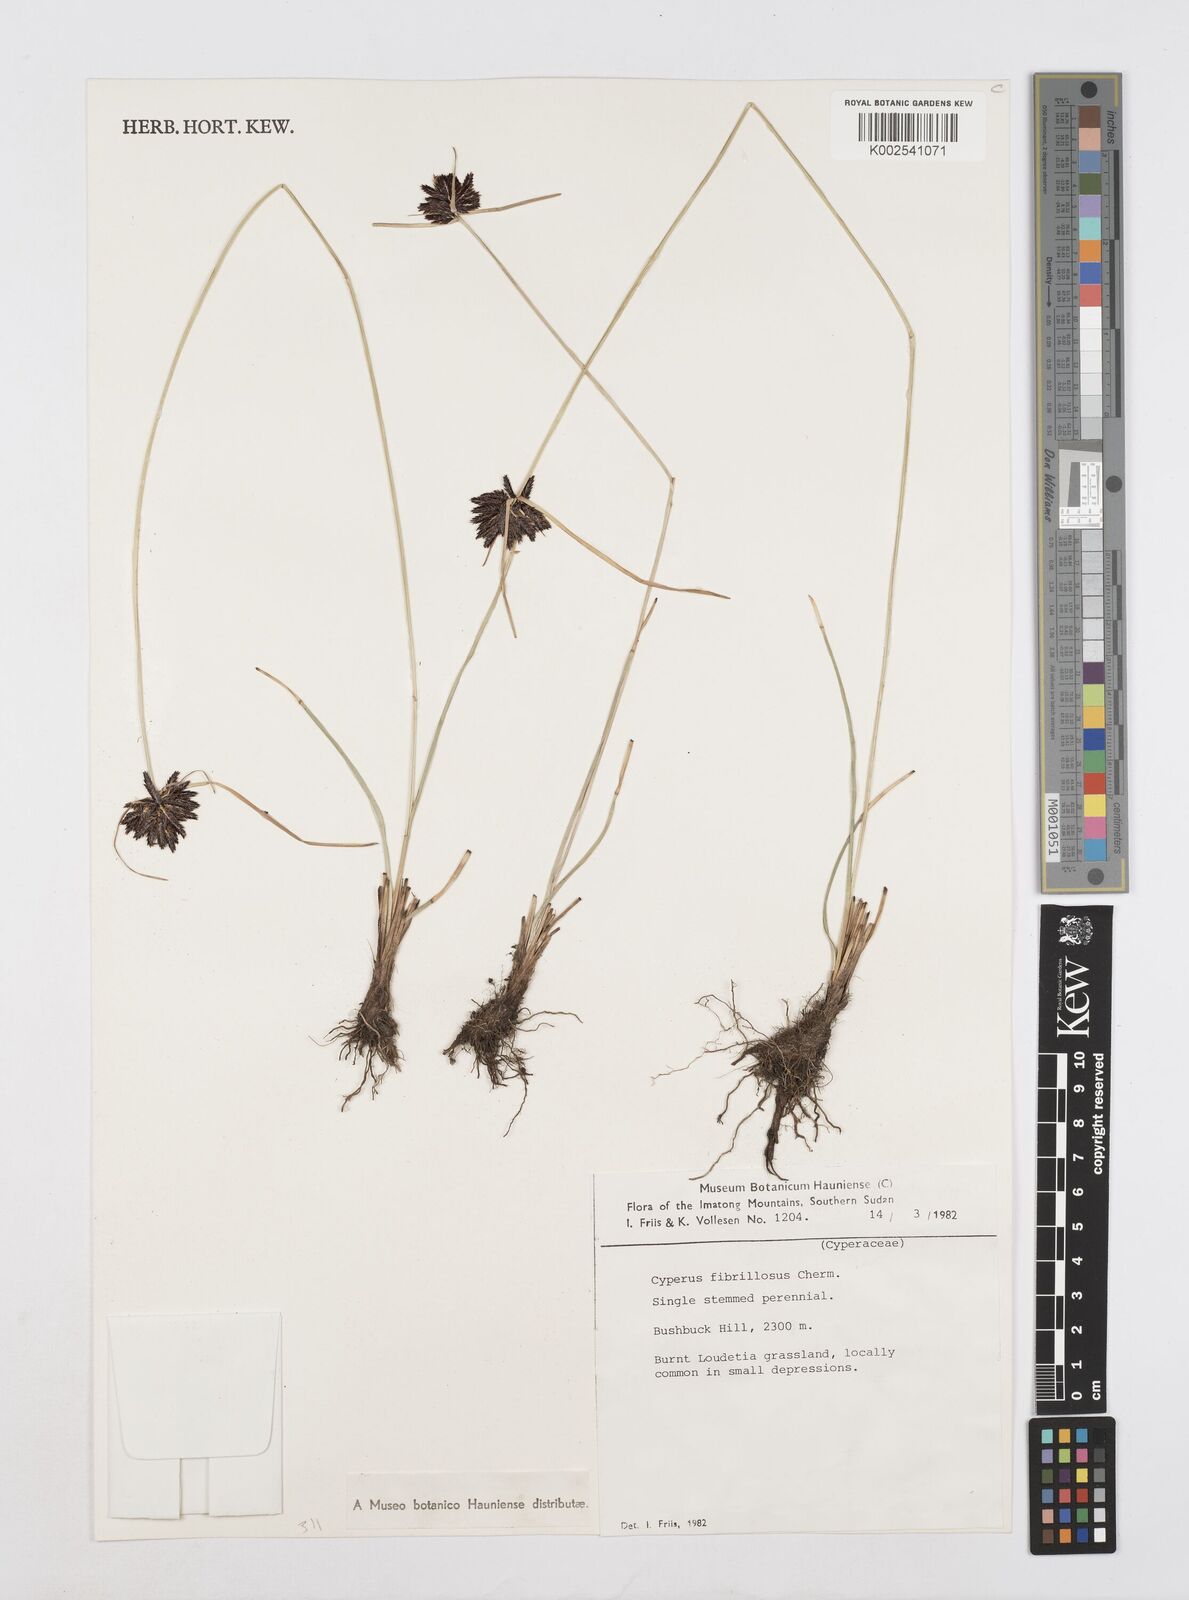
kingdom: Plantae
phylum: Tracheophyta
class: Liliopsida
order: Poales
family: Cyperaceae
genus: Cyperus
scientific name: Cyperus nigricans
